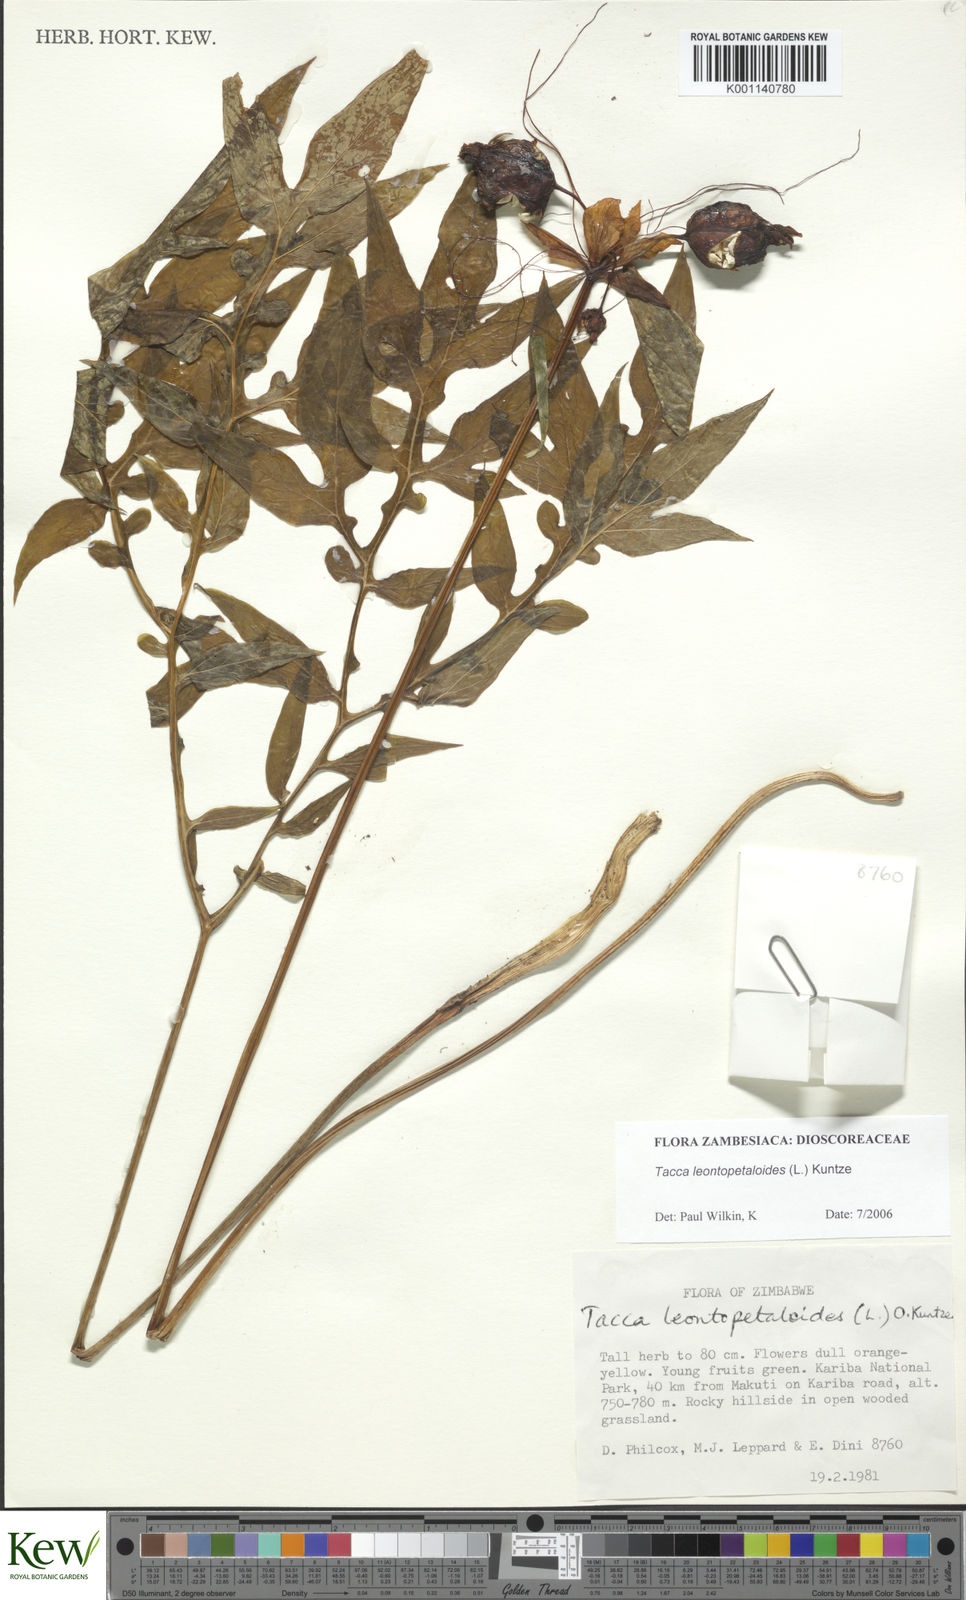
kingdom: Plantae
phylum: Tracheophyta
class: Liliopsida
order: Dioscoreales
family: Dioscoreaceae
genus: Tacca
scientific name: Tacca leontopetaloides
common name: Arrowroot
